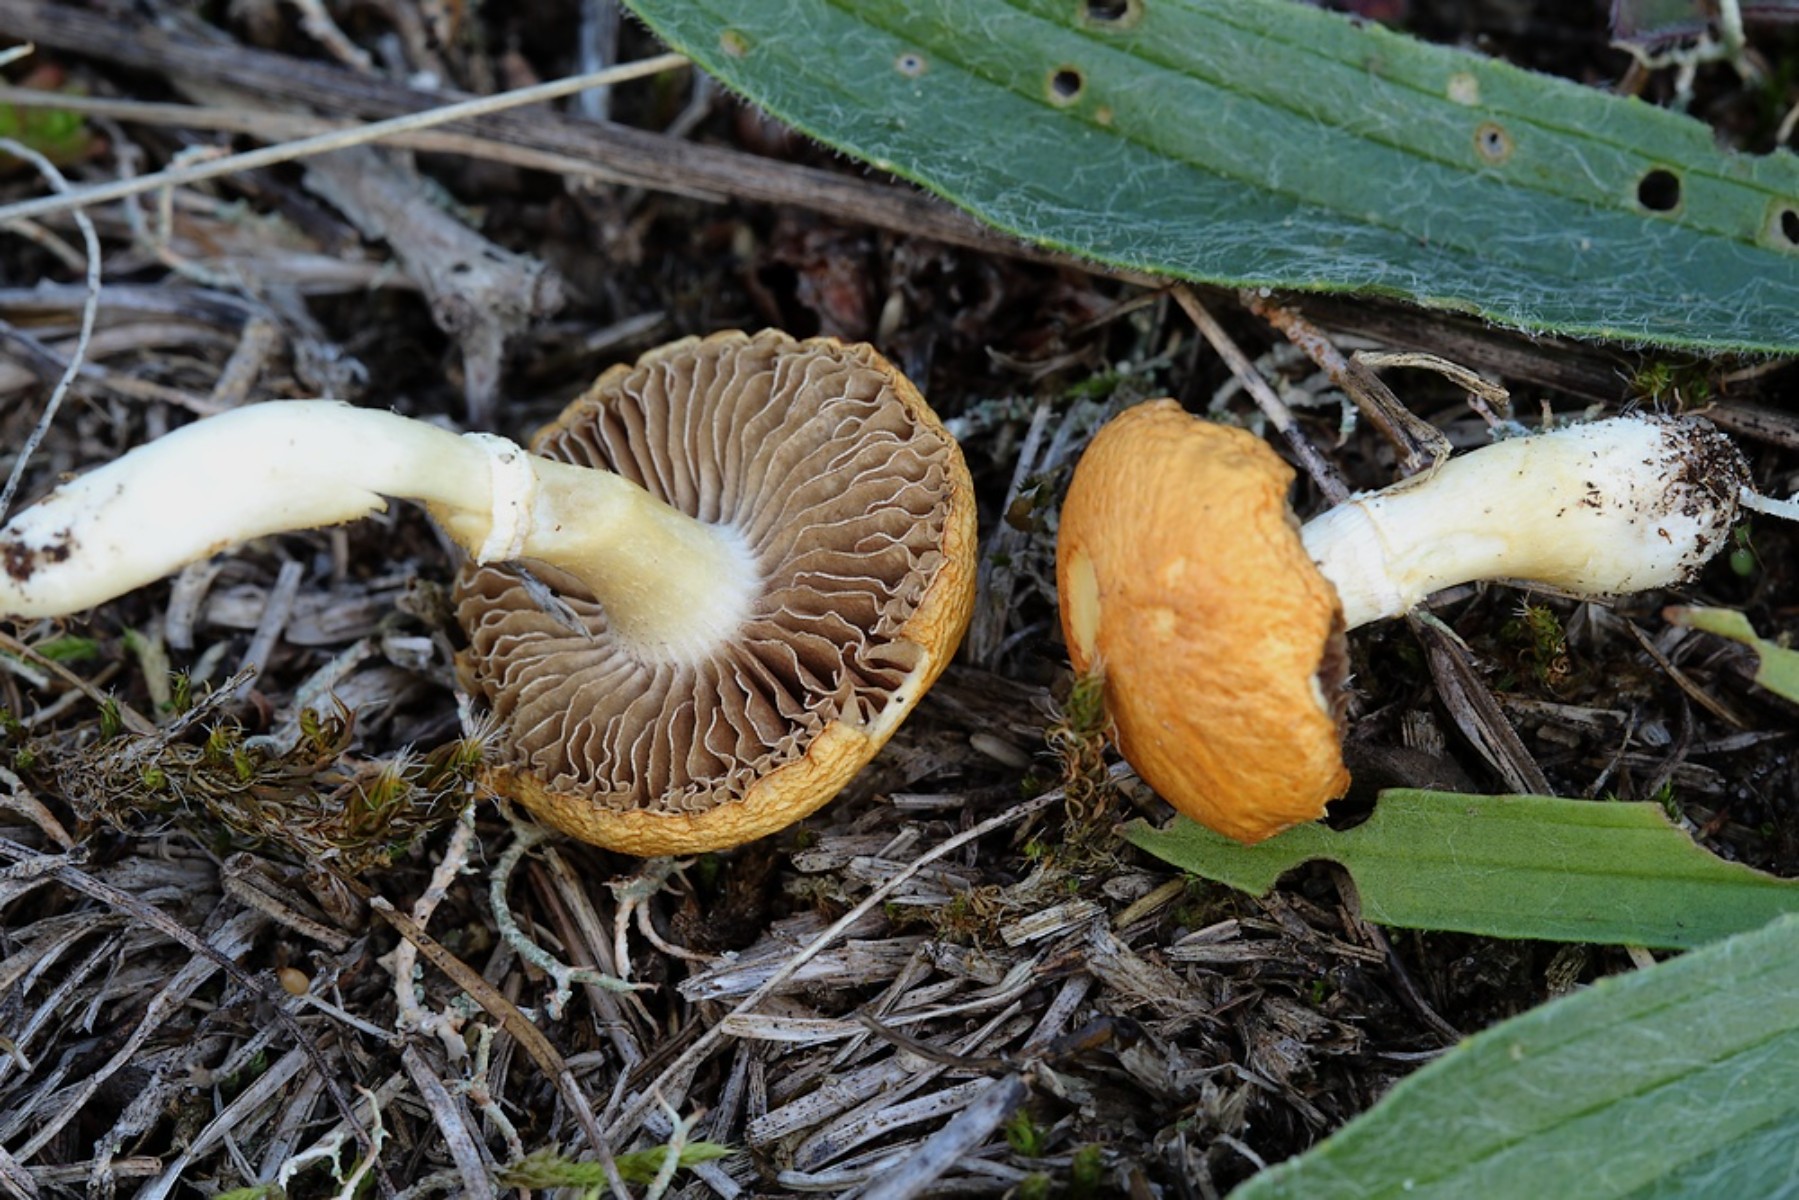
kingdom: Fungi
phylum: Basidiomycota
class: Agaricomycetes
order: Agaricales
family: Hymenogastraceae
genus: Psilocybe
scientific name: Psilocybe coronilla
